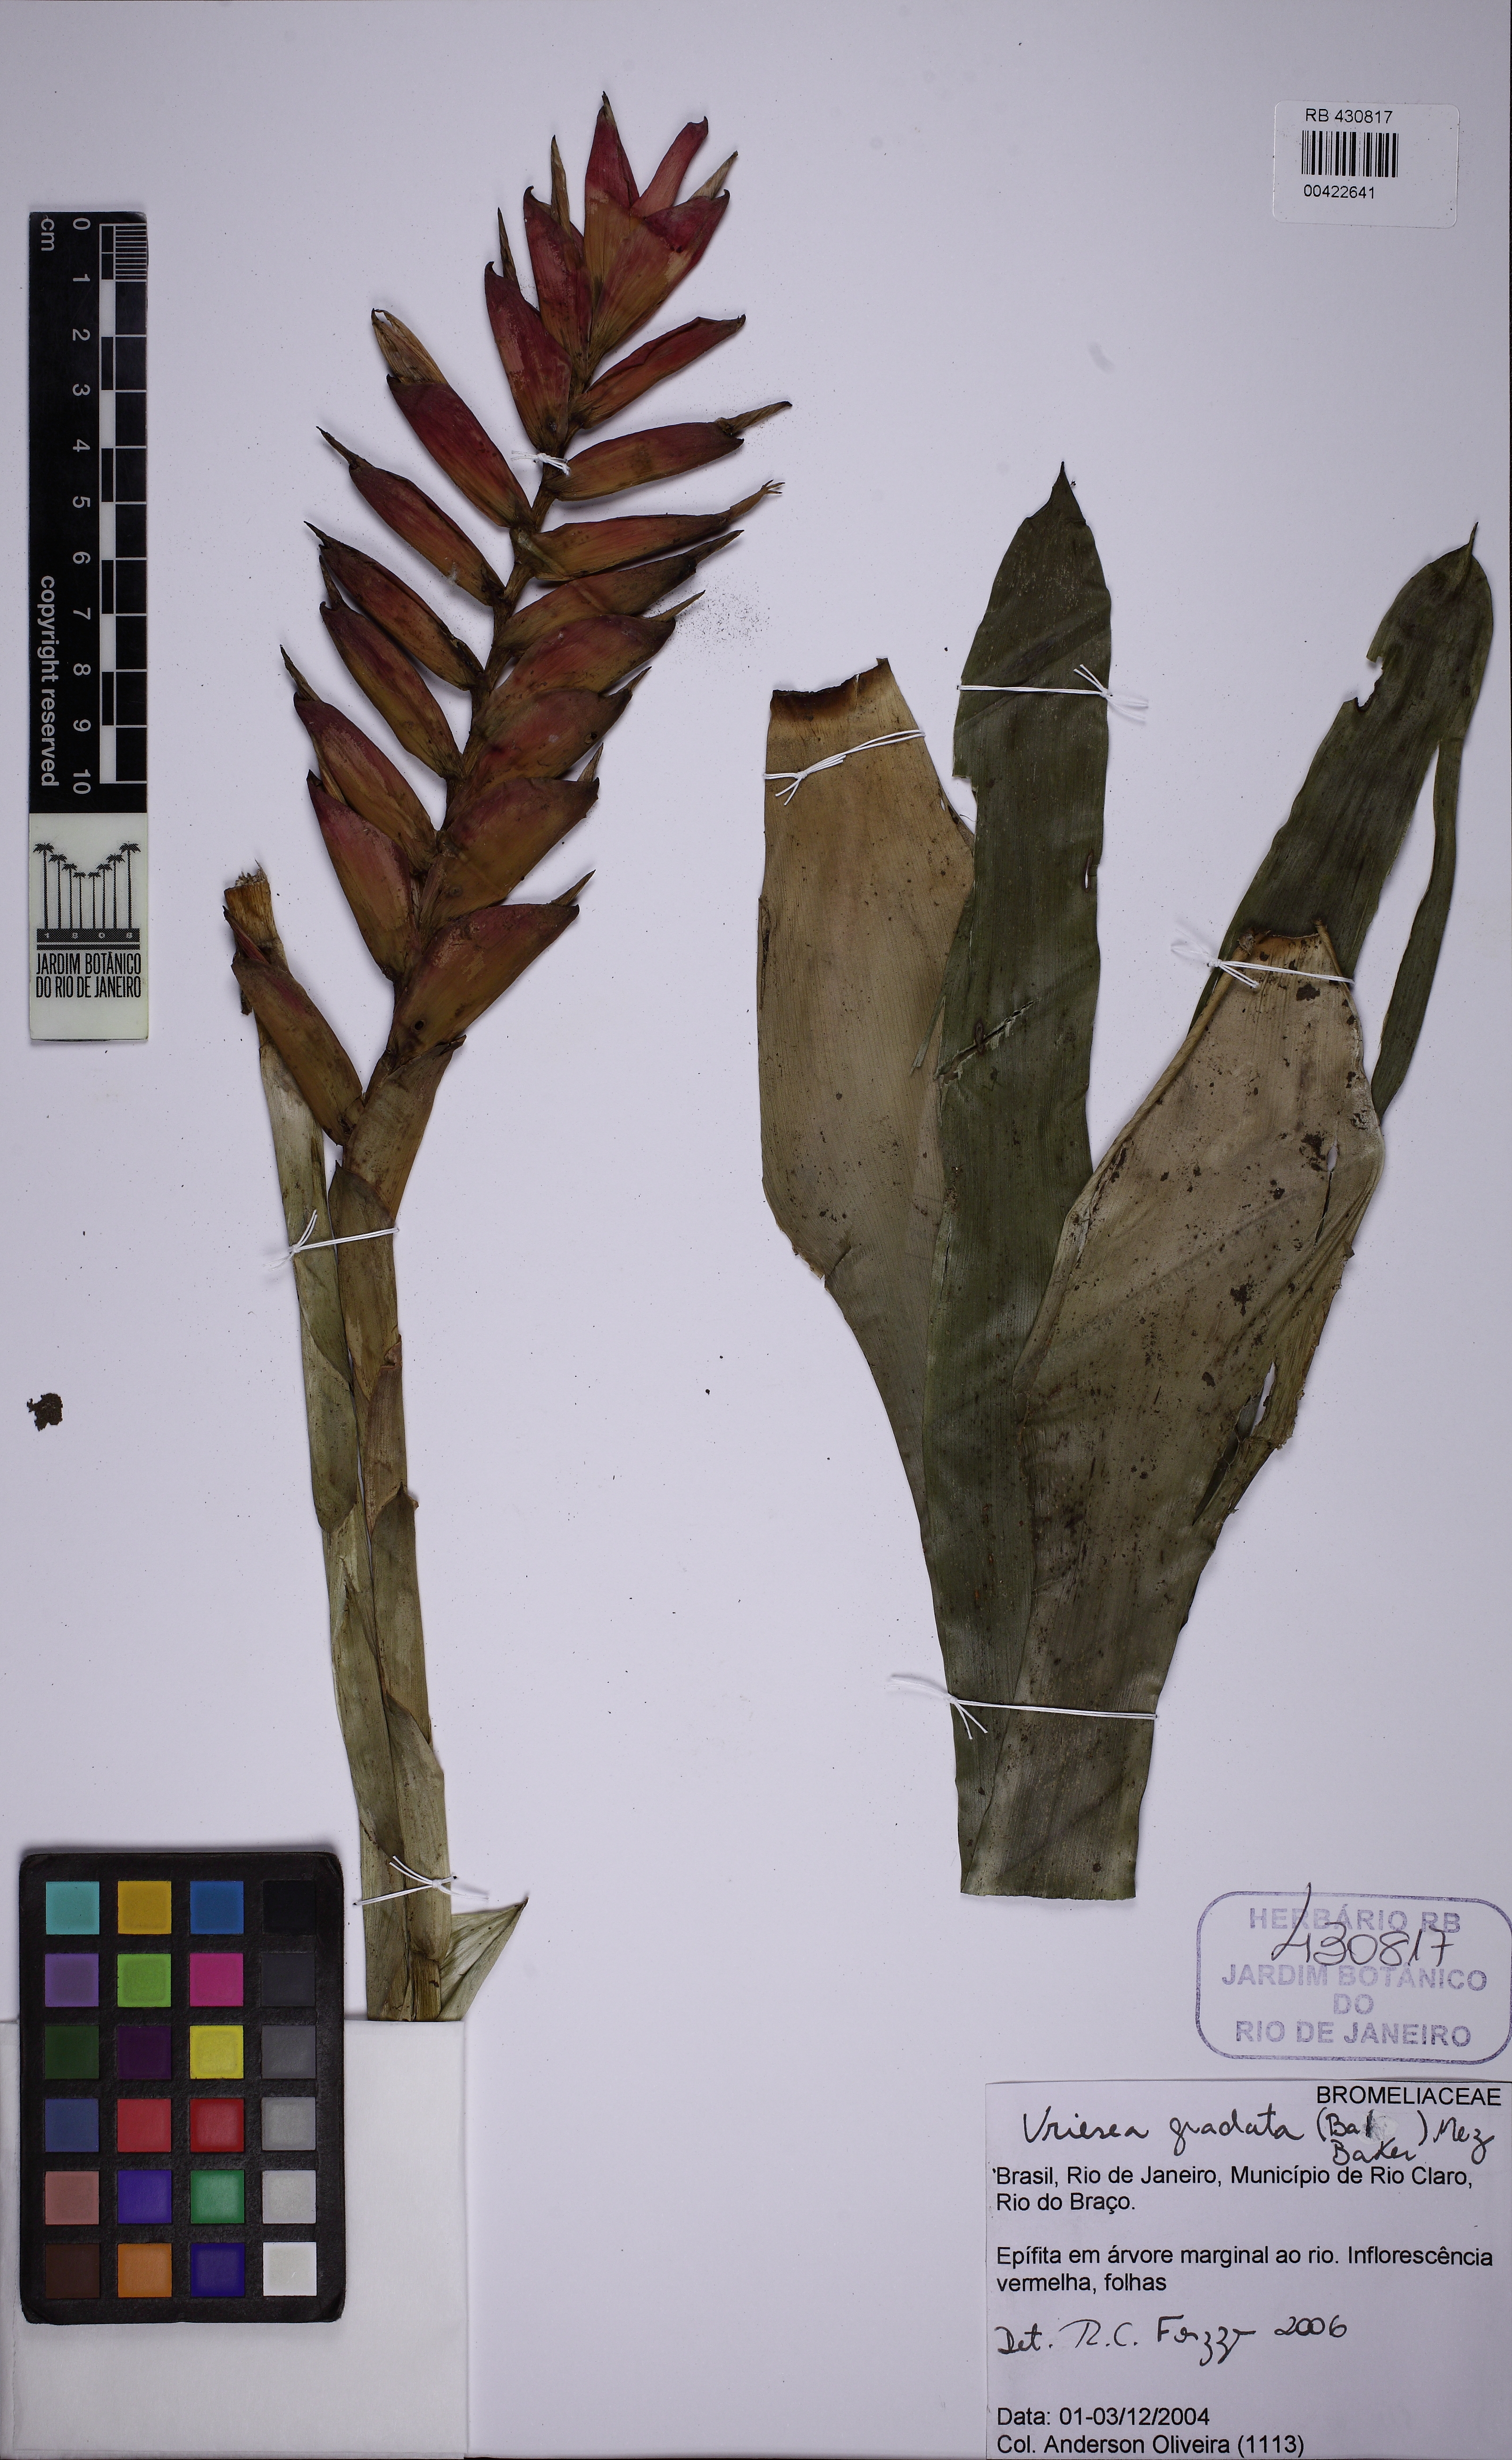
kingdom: Plantae
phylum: Tracheophyta
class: Liliopsida
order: Poales
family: Bromeliaceae
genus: Vriesea
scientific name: Vriesea gradata
